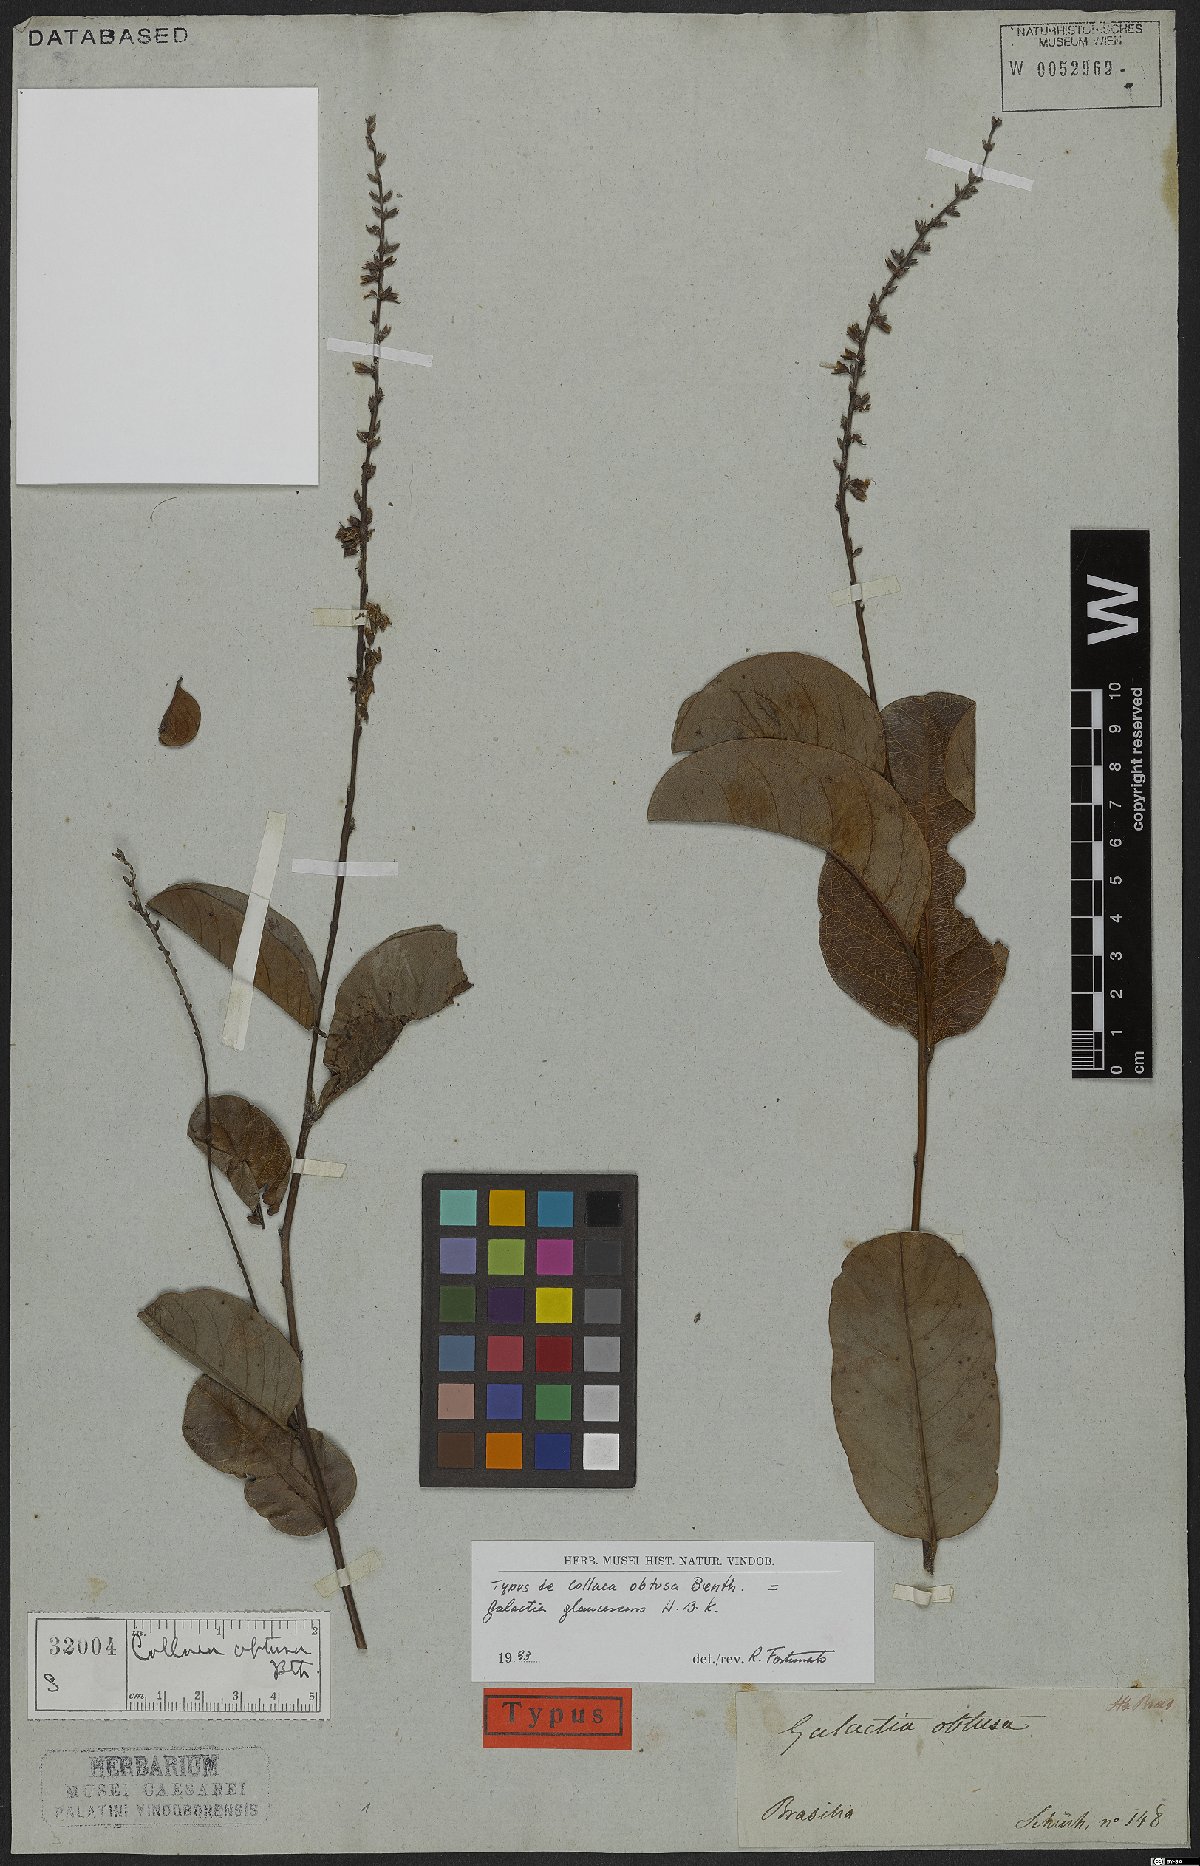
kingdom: Plantae
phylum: Tracheophyta
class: Magnoliopsida
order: Fabales
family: Fabaceae
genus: Galactia
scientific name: Galactia glaucescens
